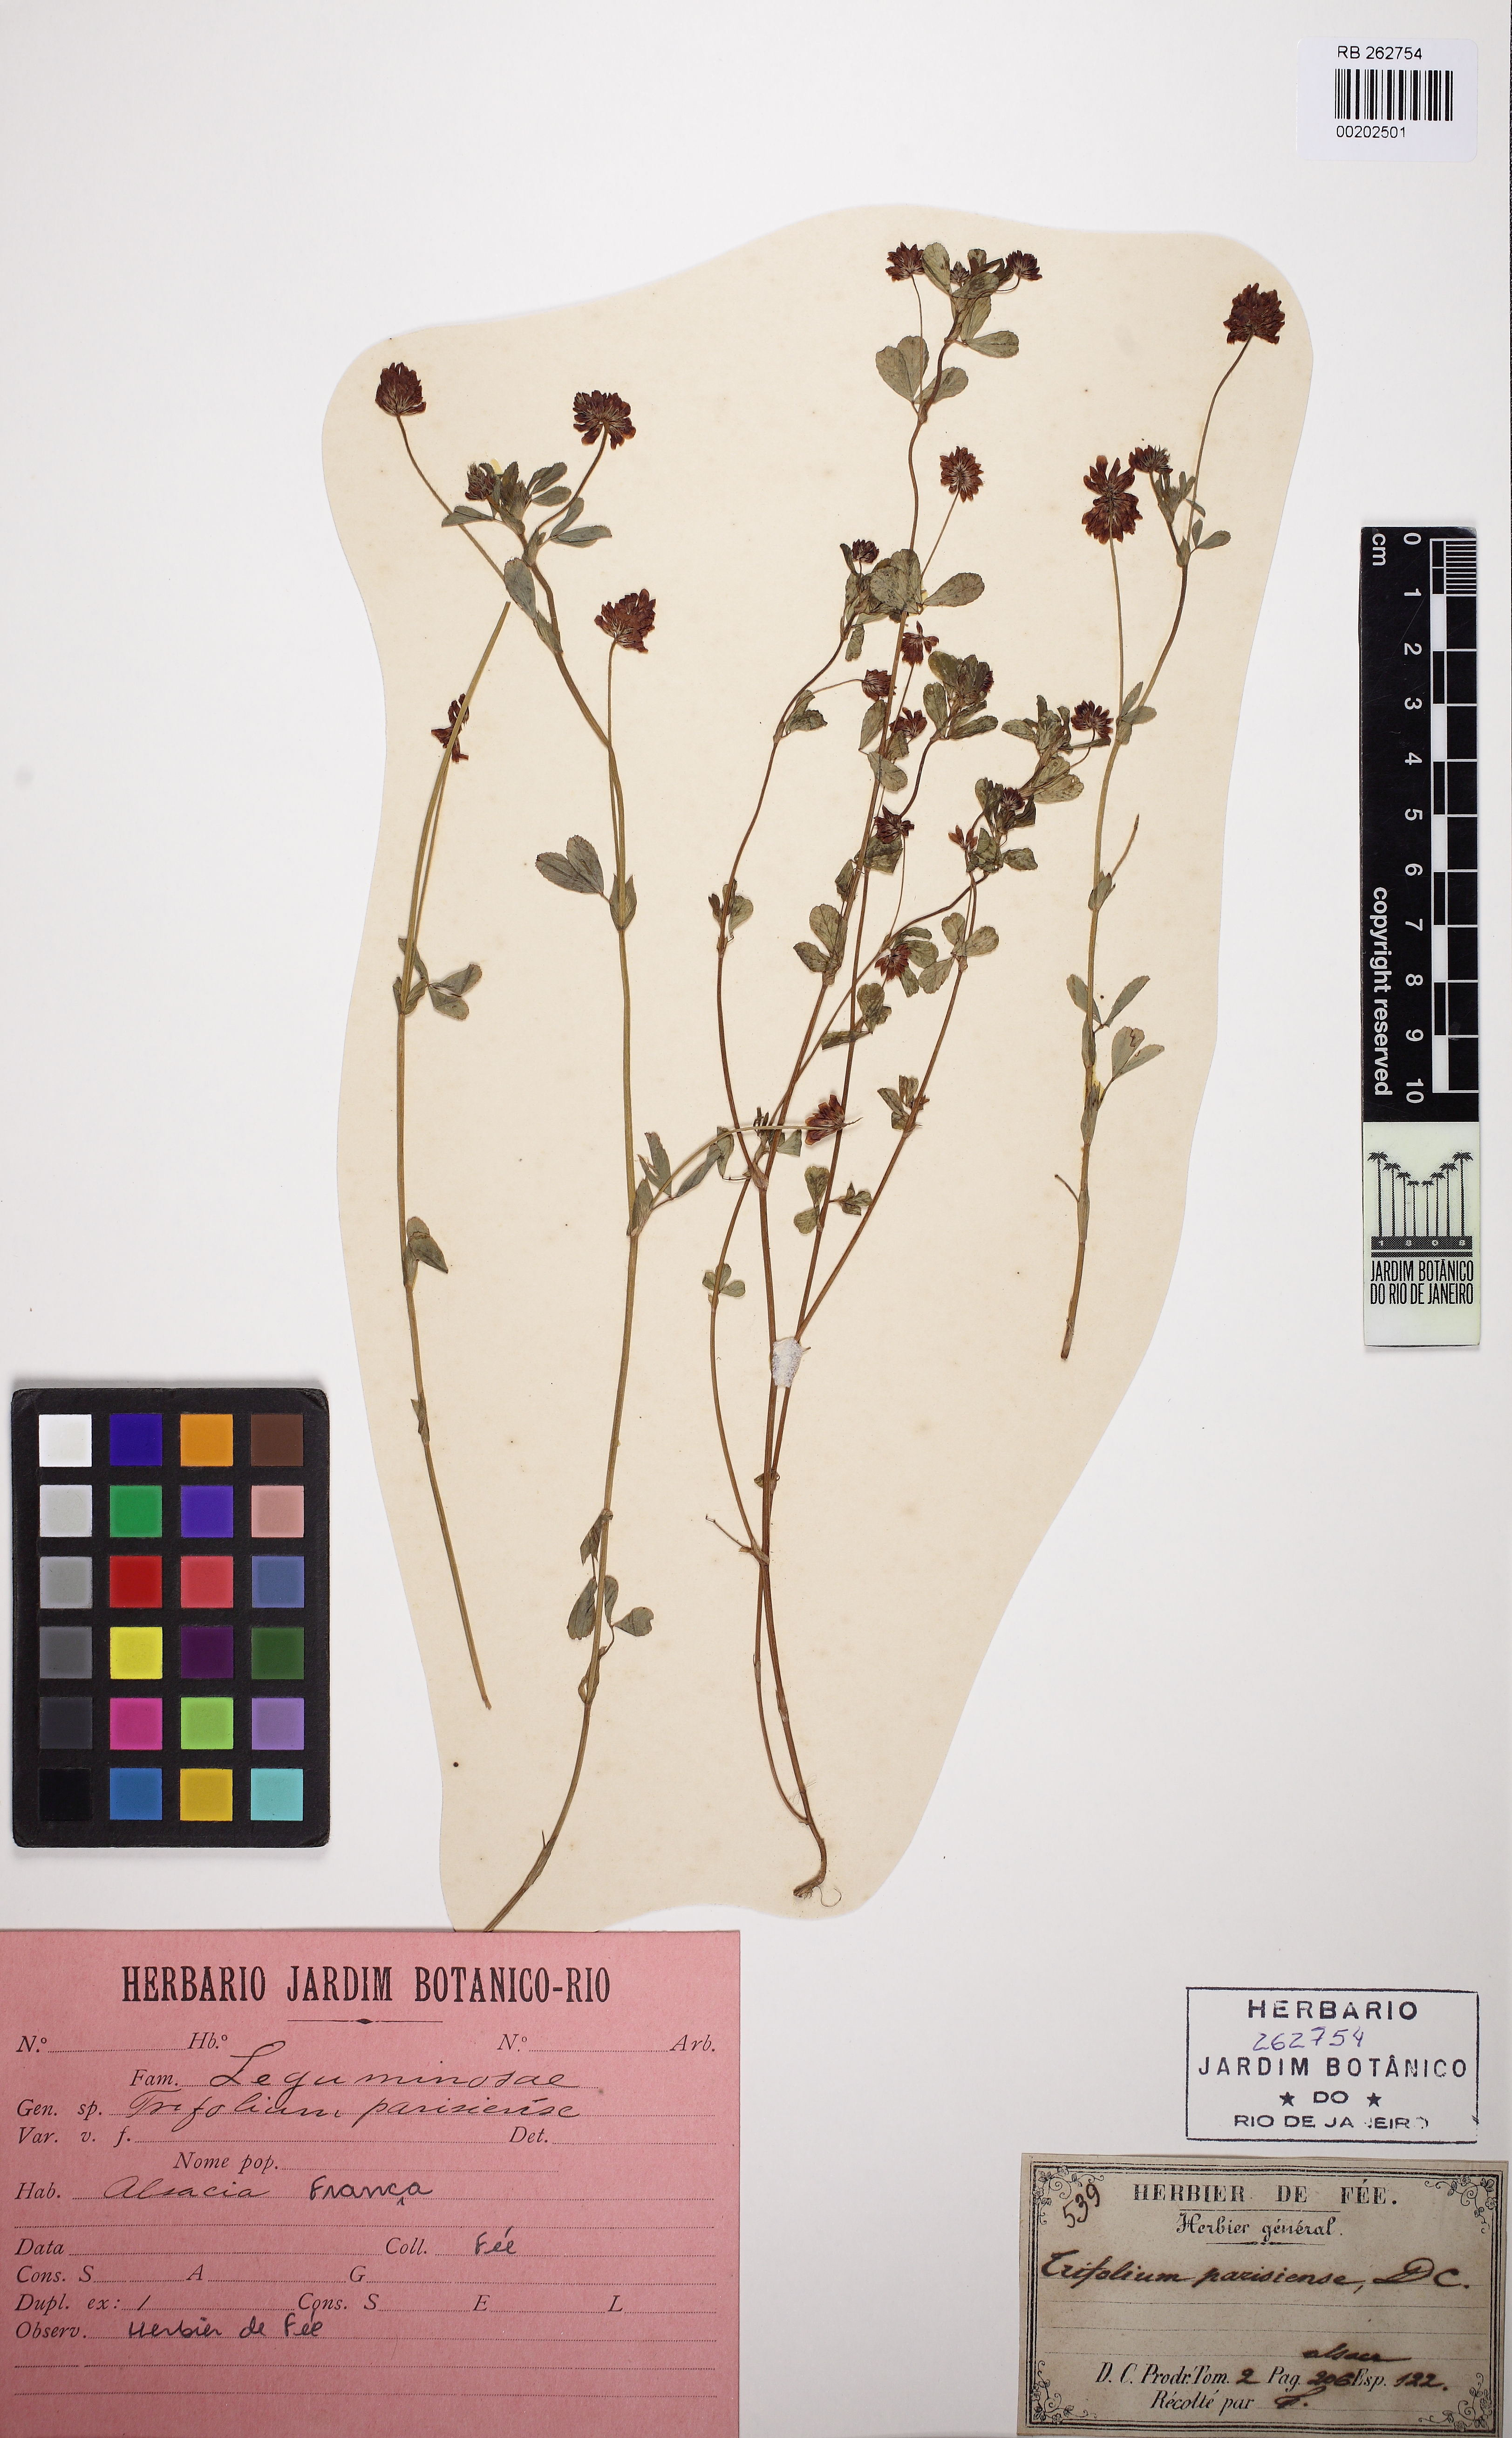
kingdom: Plantae
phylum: Tracheophyta
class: Magnoliopsida
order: Fabales
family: Fabaceae
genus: Trifolium
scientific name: Trifolium patens
